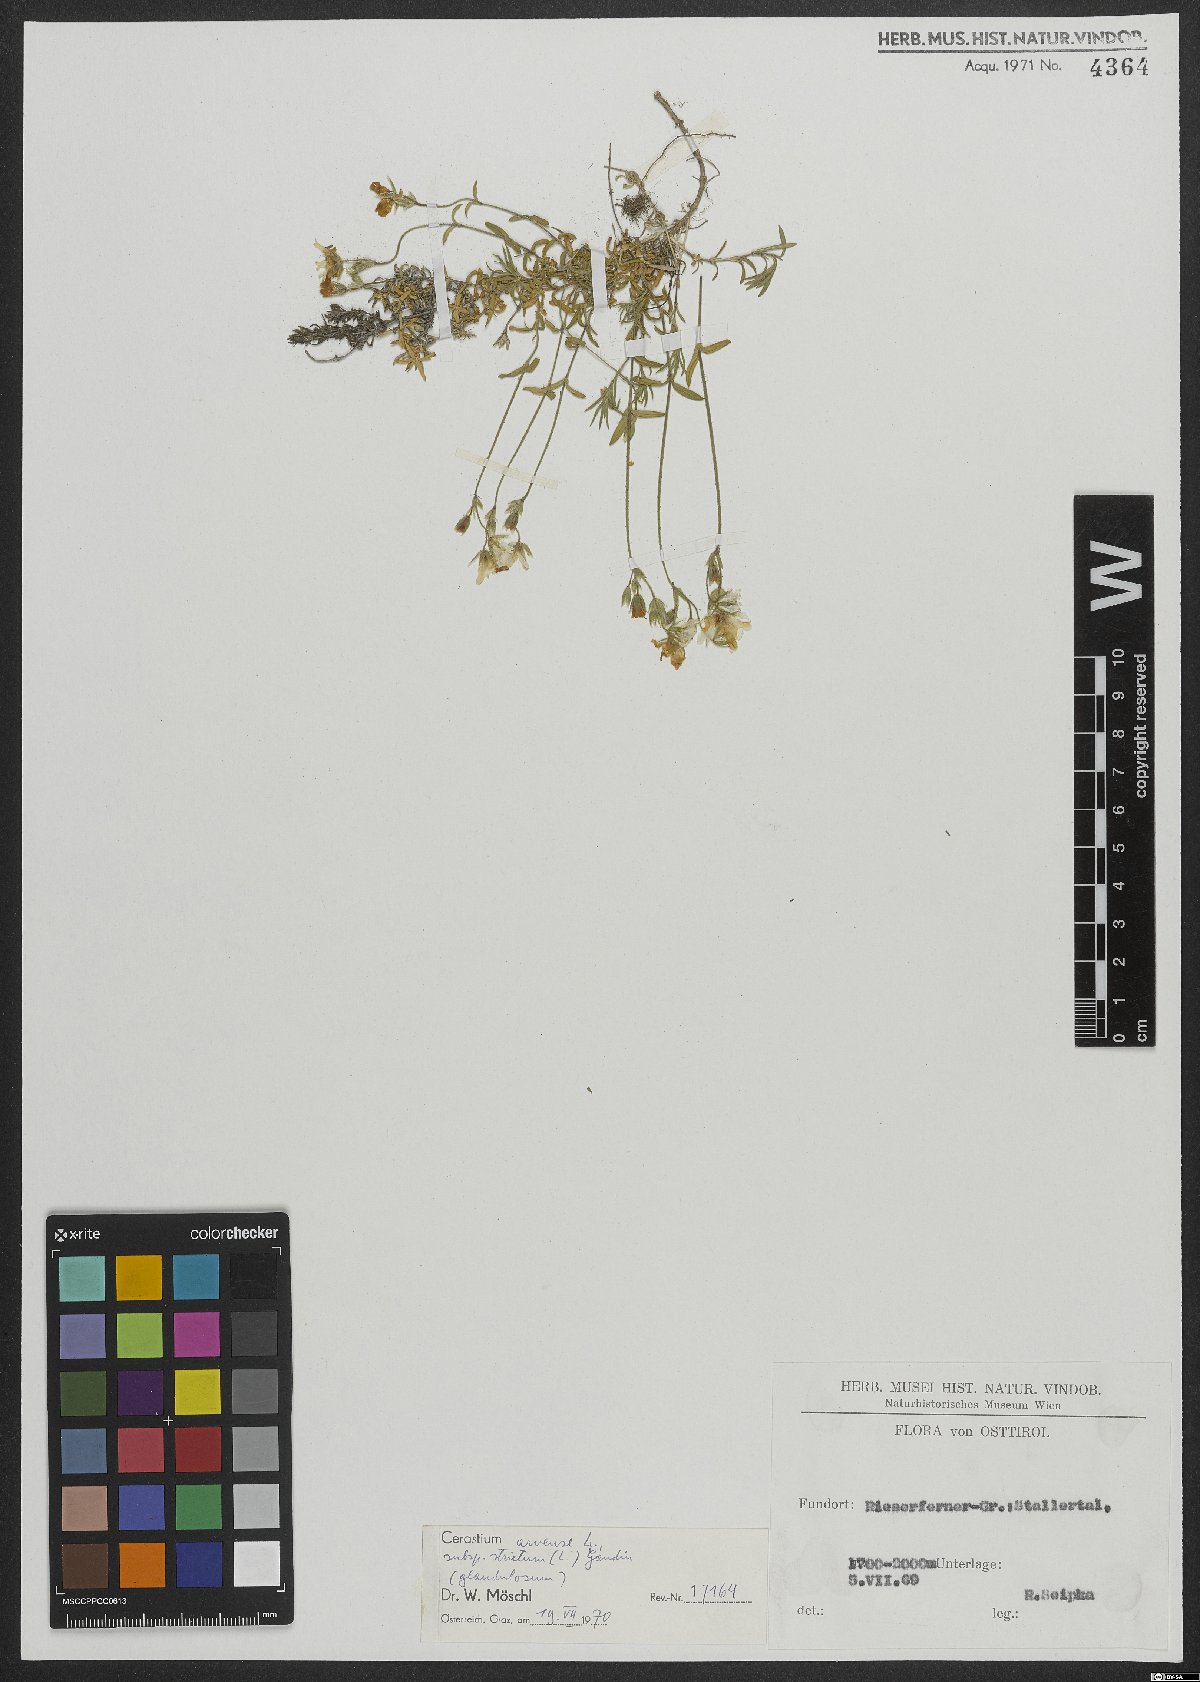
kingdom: Plantae
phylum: Tracheophyta
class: Magnoliopsida
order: Caryophyllales
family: Caryophyllaceae
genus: Cerastium
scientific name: Cerastium elongatum
